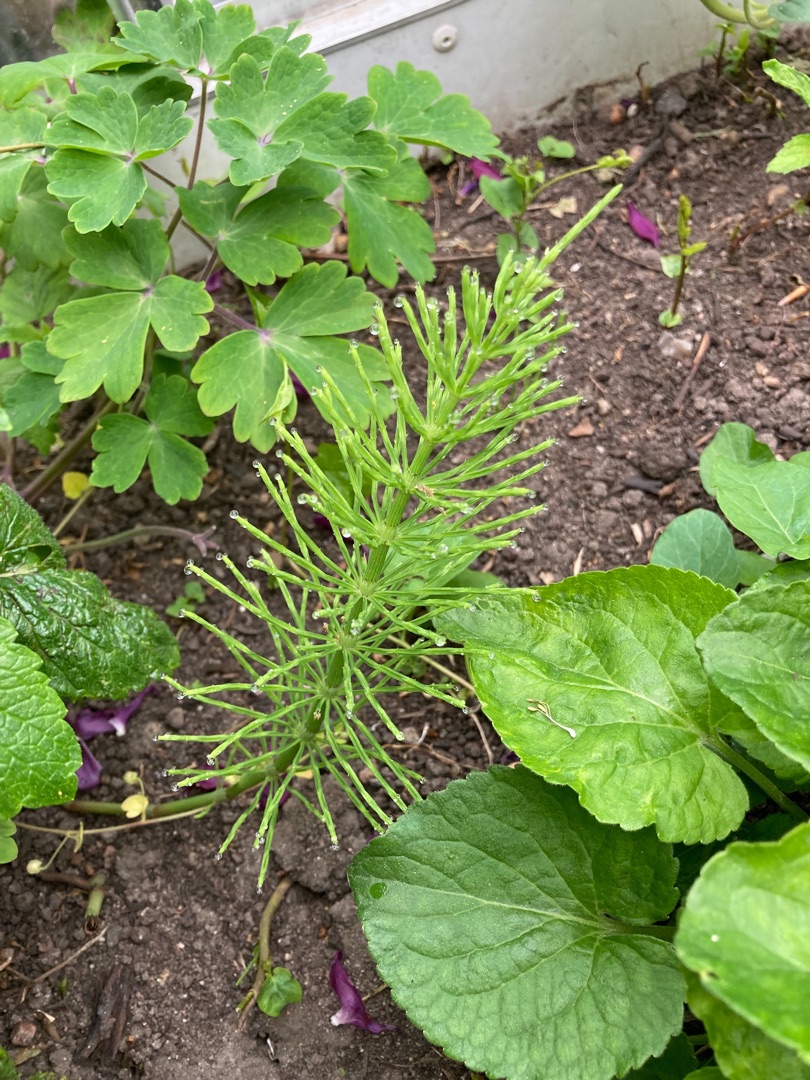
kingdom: Plantae
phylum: Tracheophyta
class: Polypodiopsida
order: Equisetales
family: Equisetaceae
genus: Equisetum
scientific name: Equisetum arvense
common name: Ager-padderok
